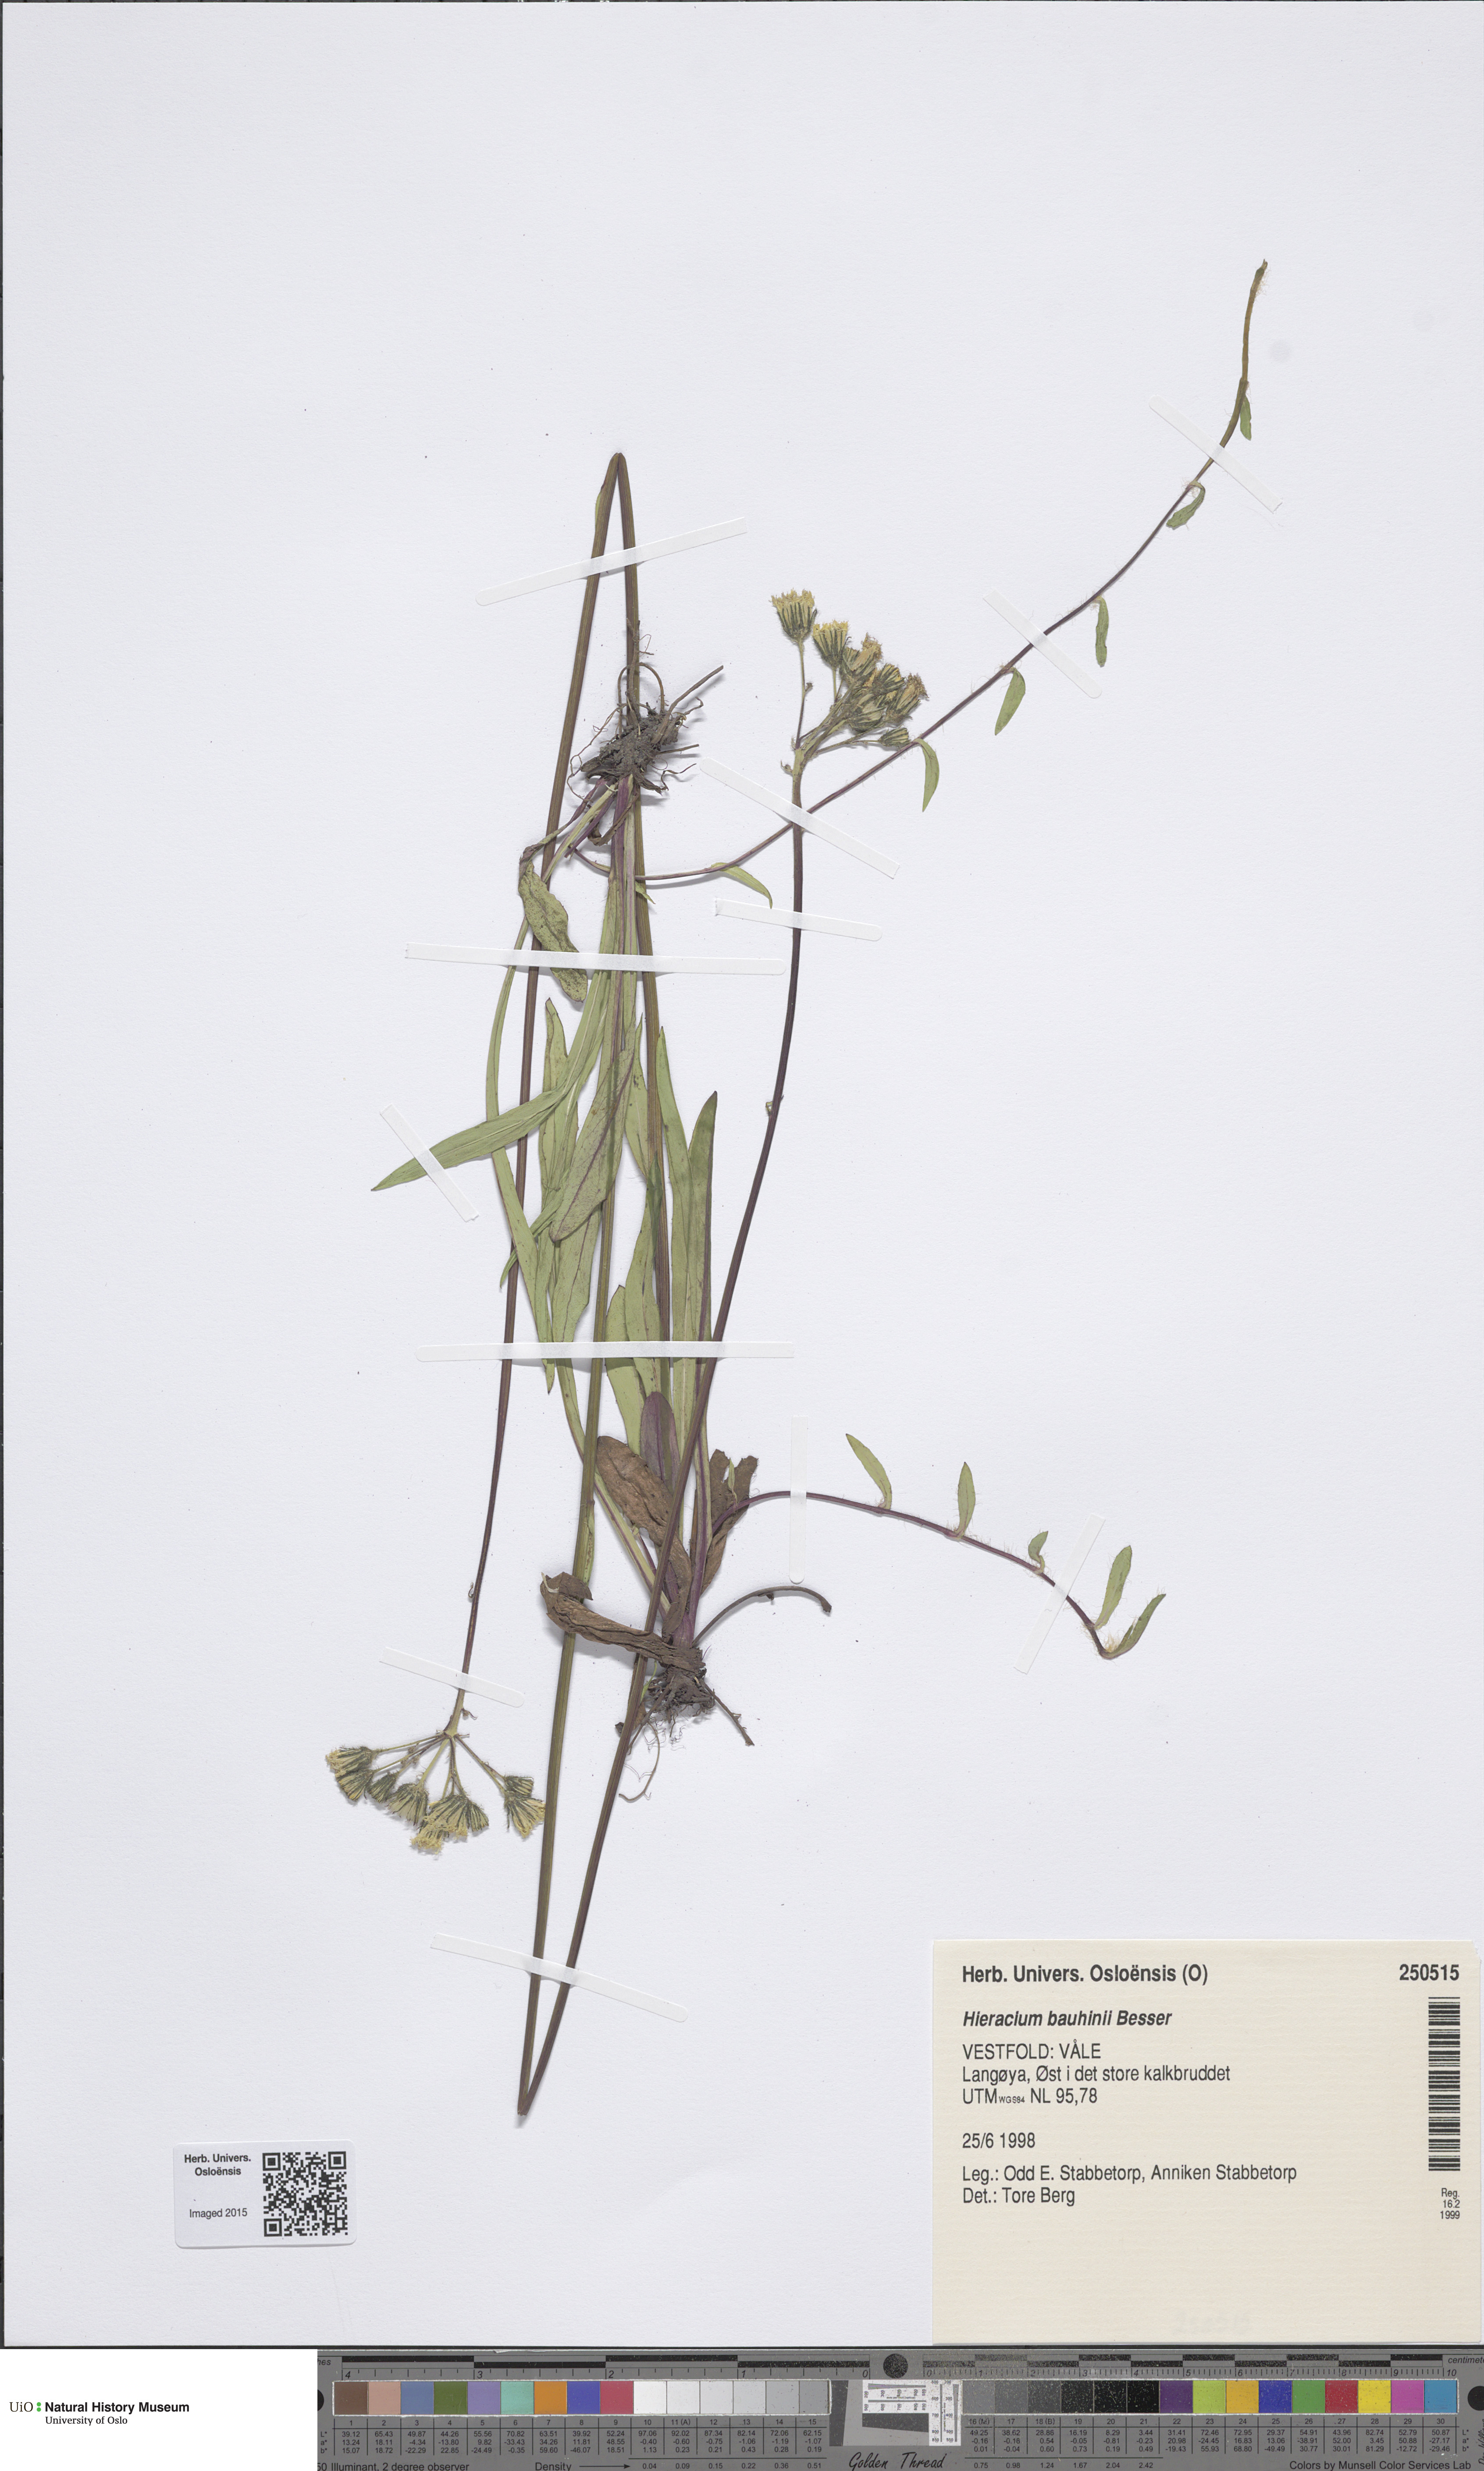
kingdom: Plantae
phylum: Tracheophyta
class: Magnoliopsida
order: Asterales
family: Asteraceae
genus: Pilosella
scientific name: Pilosella bauhini
